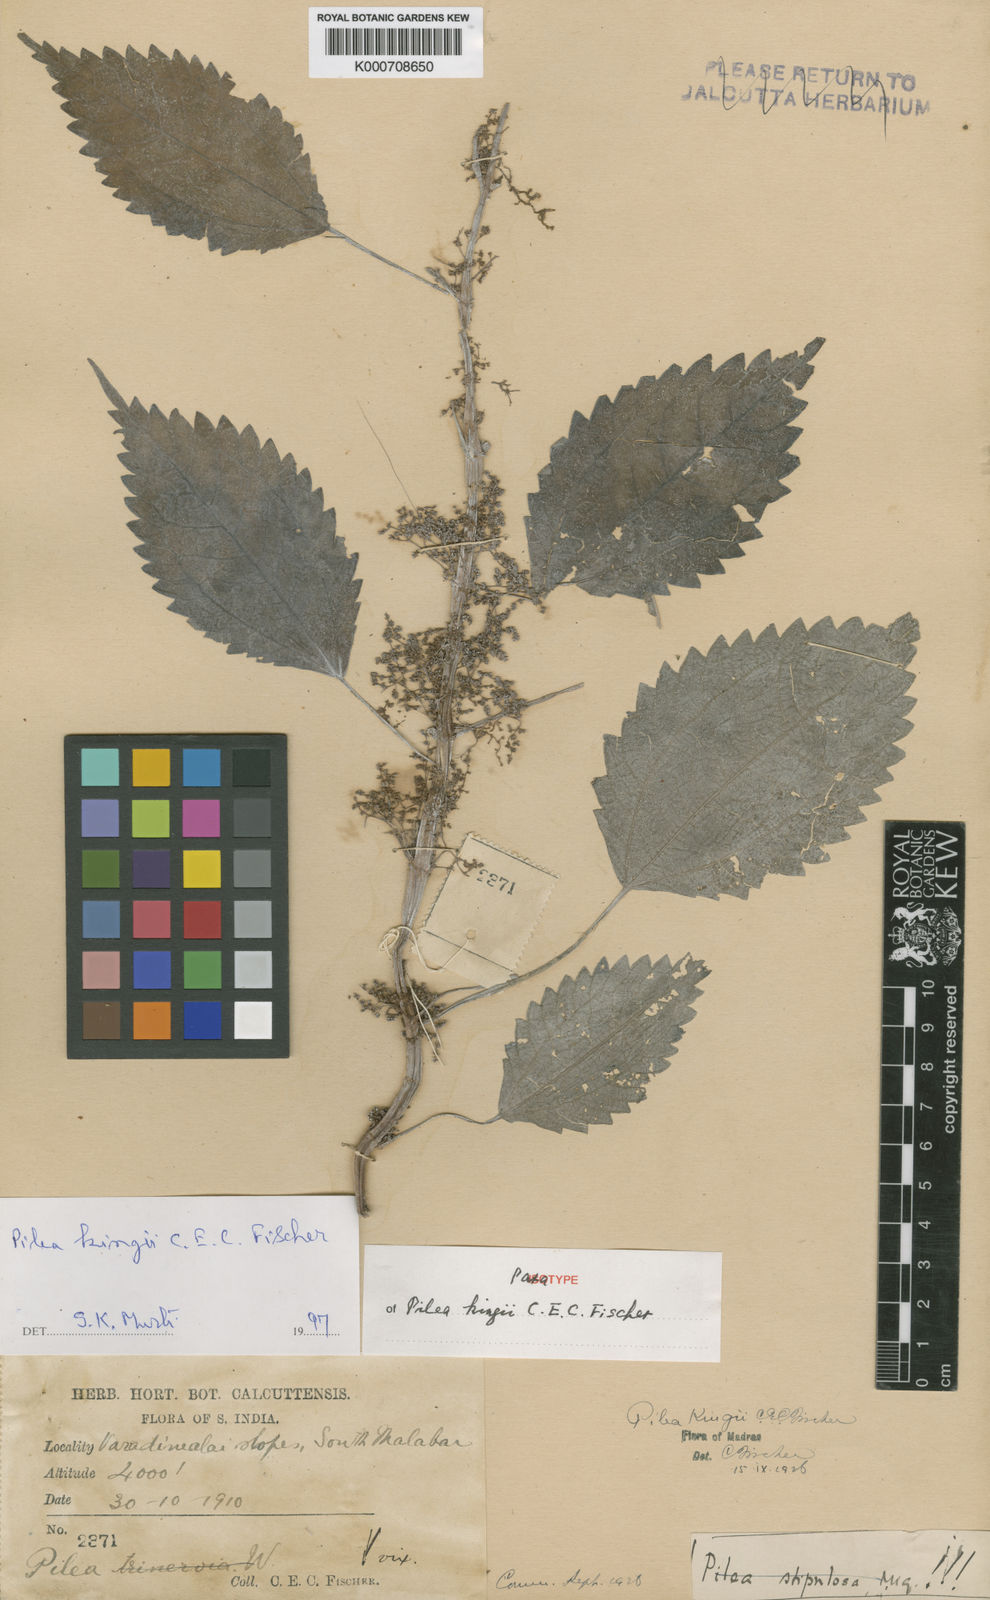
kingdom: Plantae
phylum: Tracheophyta
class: Magnoliopsida
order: Rosales
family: Urticaceae
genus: Pilea
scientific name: Pilea obesa
